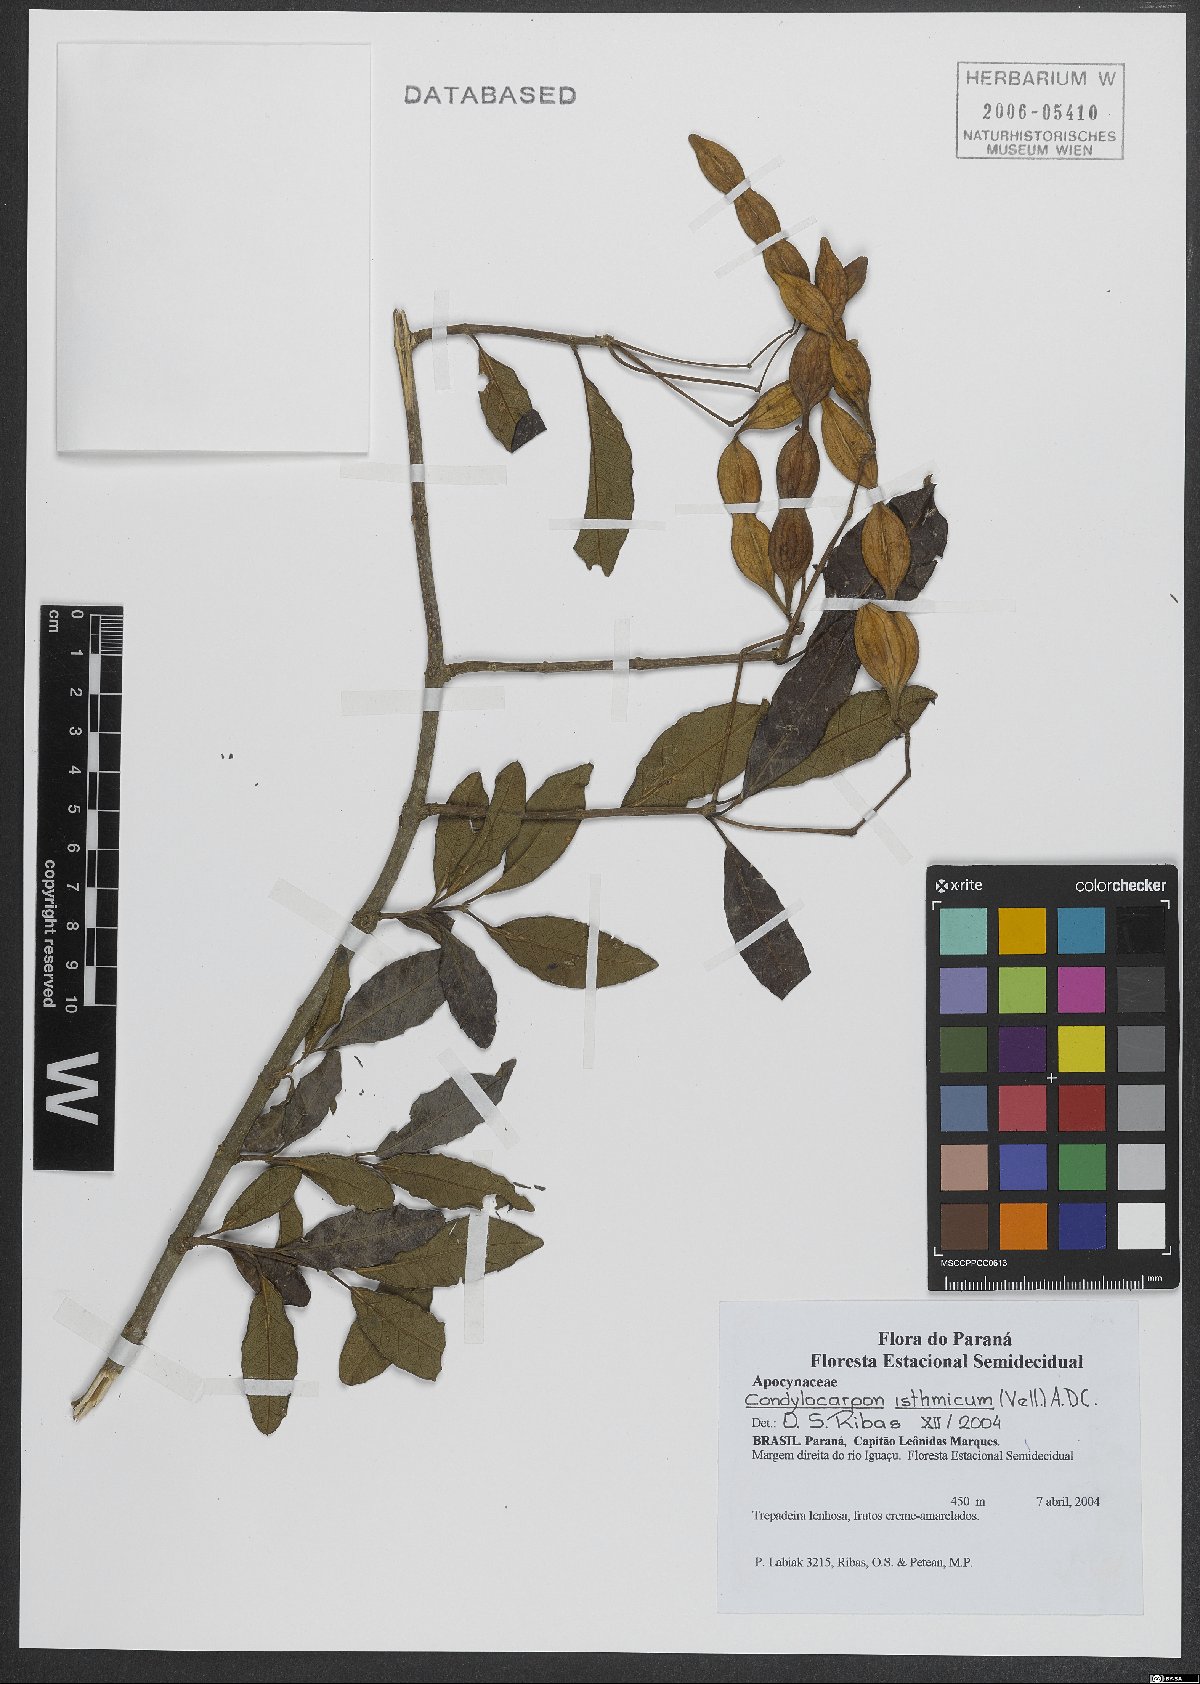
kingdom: Plantae
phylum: Tracheophyta
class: Magnoliopsida
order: Gentianales
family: Apocynaceae
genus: Condylocarpon
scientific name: Condylocarpon isthmicum
